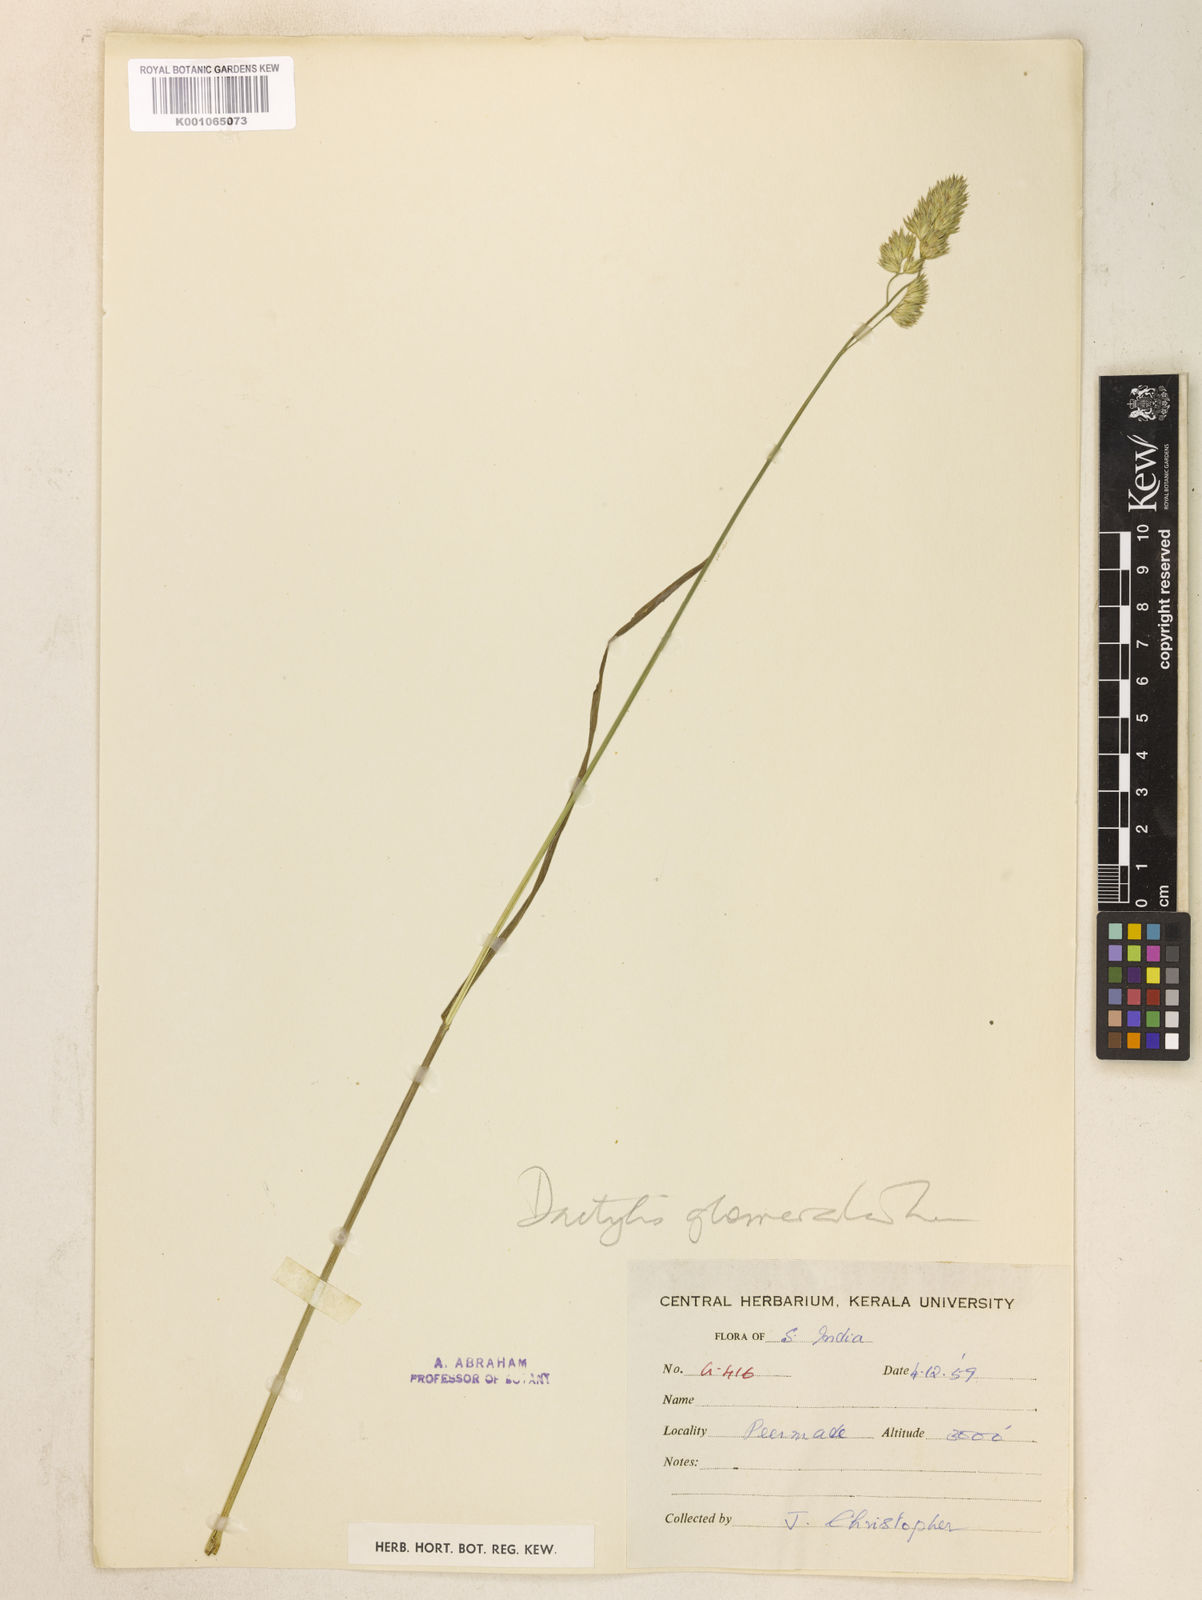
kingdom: Plantae
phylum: Tracheophyta
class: Liliopsida
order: Poales
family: Poaceae
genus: Dactylis
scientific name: Dactylis glomerata
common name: Orchardgrass
